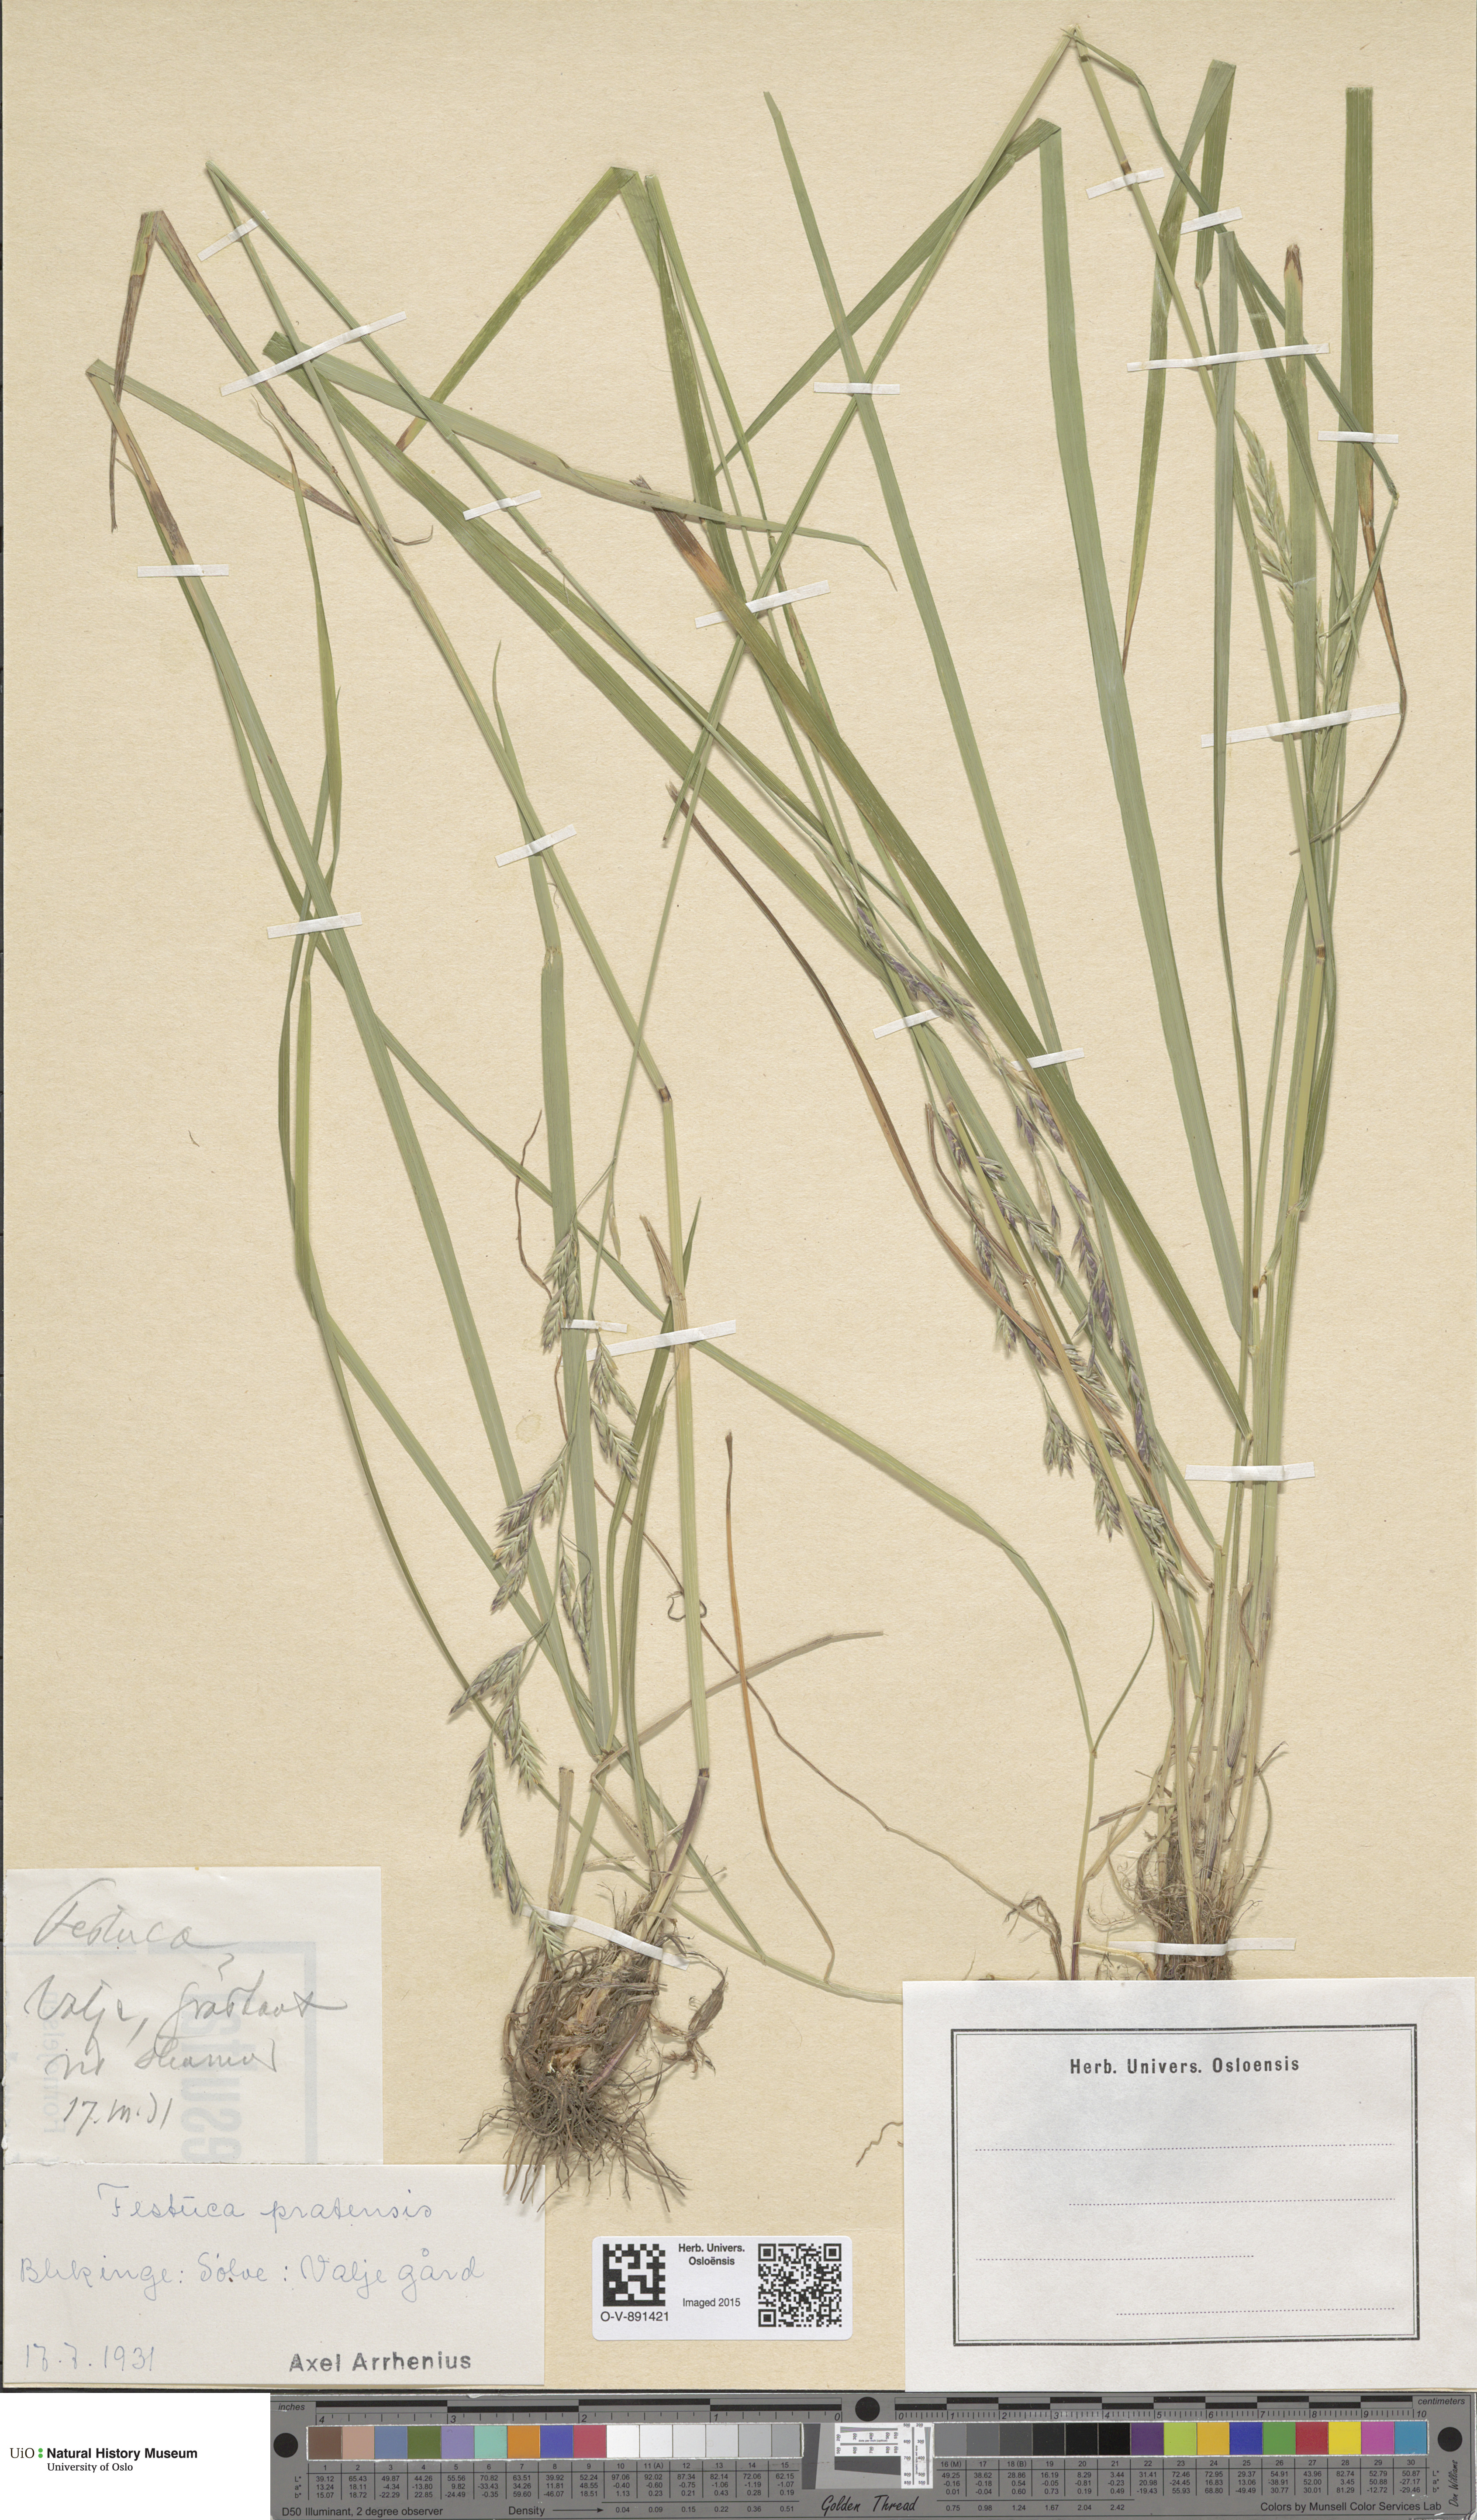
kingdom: Plantae
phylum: Tracheophyta
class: Liliopsida
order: Poales
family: Poaceae
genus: Lolium
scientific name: Lolium pratense
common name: Dover grass
